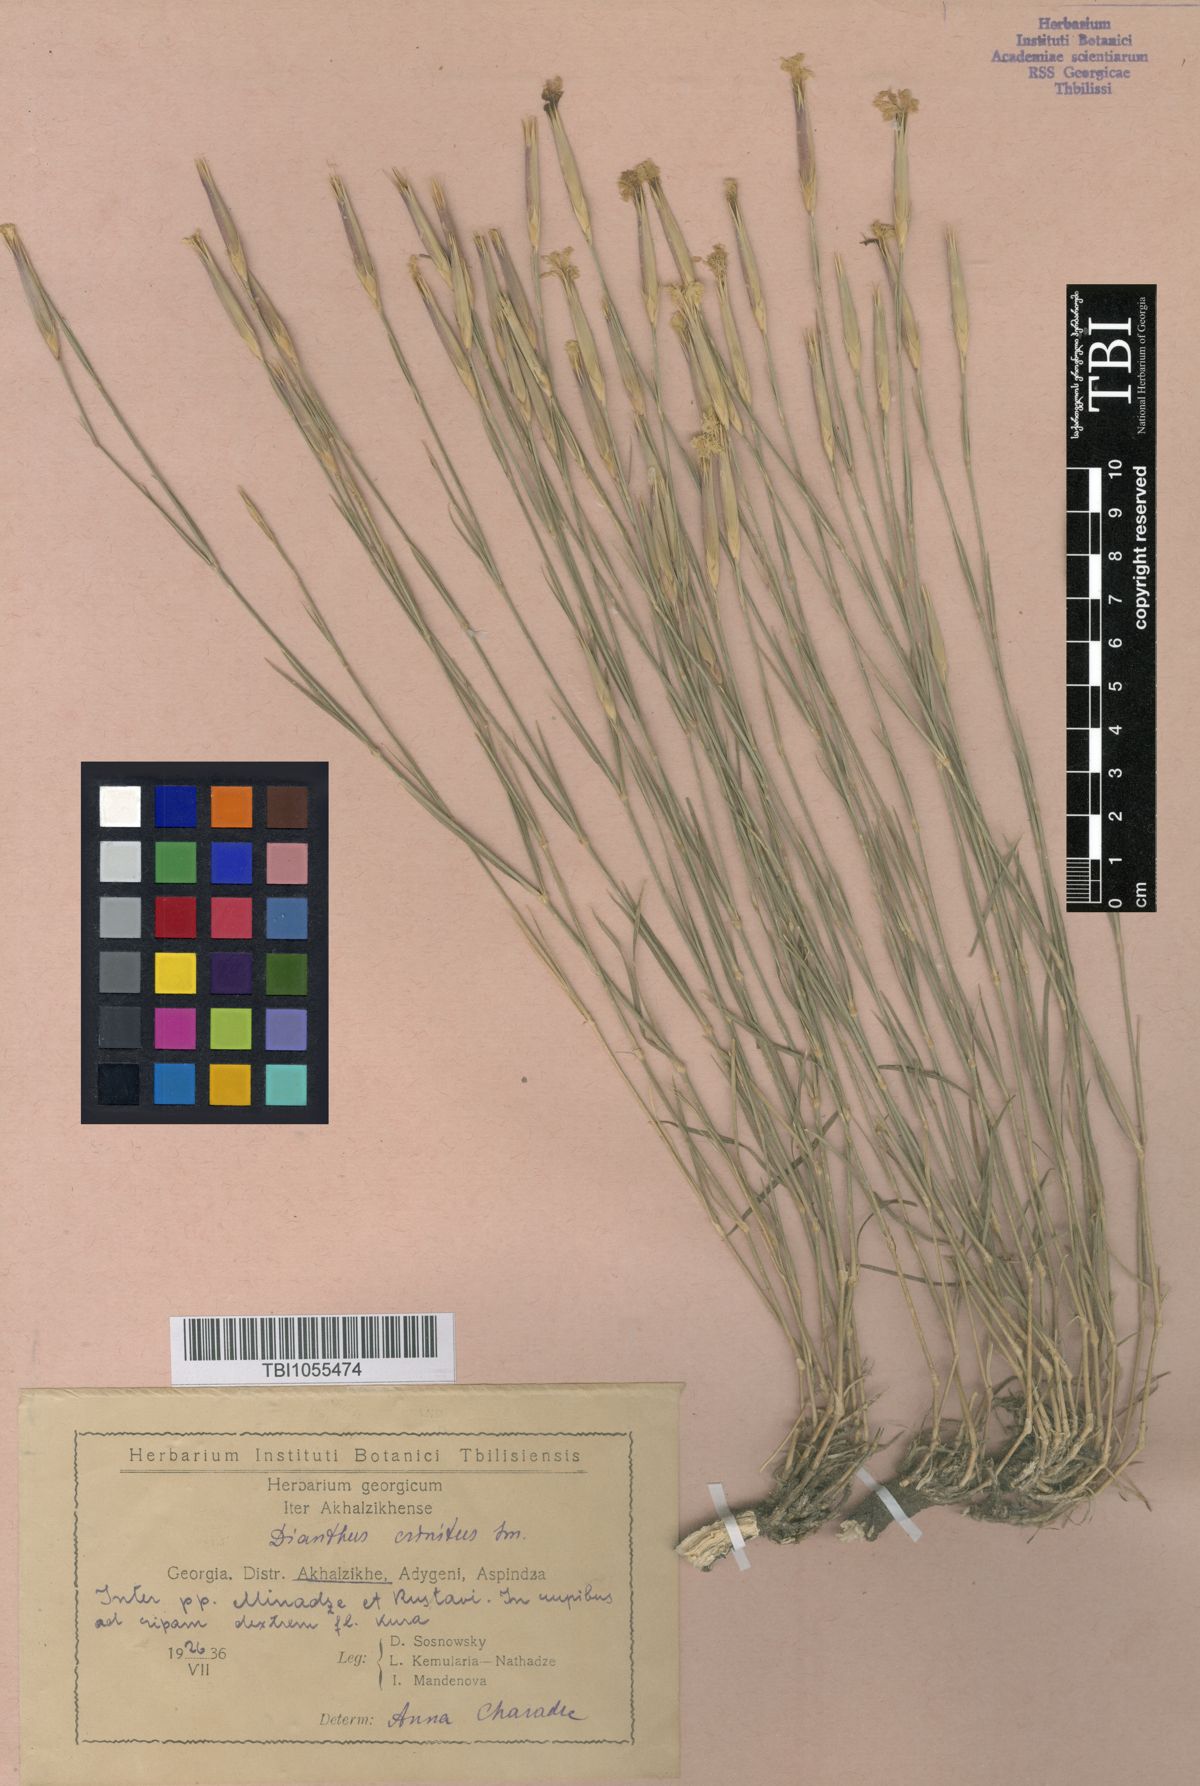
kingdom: Plantae
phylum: Tracheophyta
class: Magnoliopsida
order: Caryophyllales
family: Caryophyllaceae
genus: Dianthus
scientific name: Dianthus crinitus
